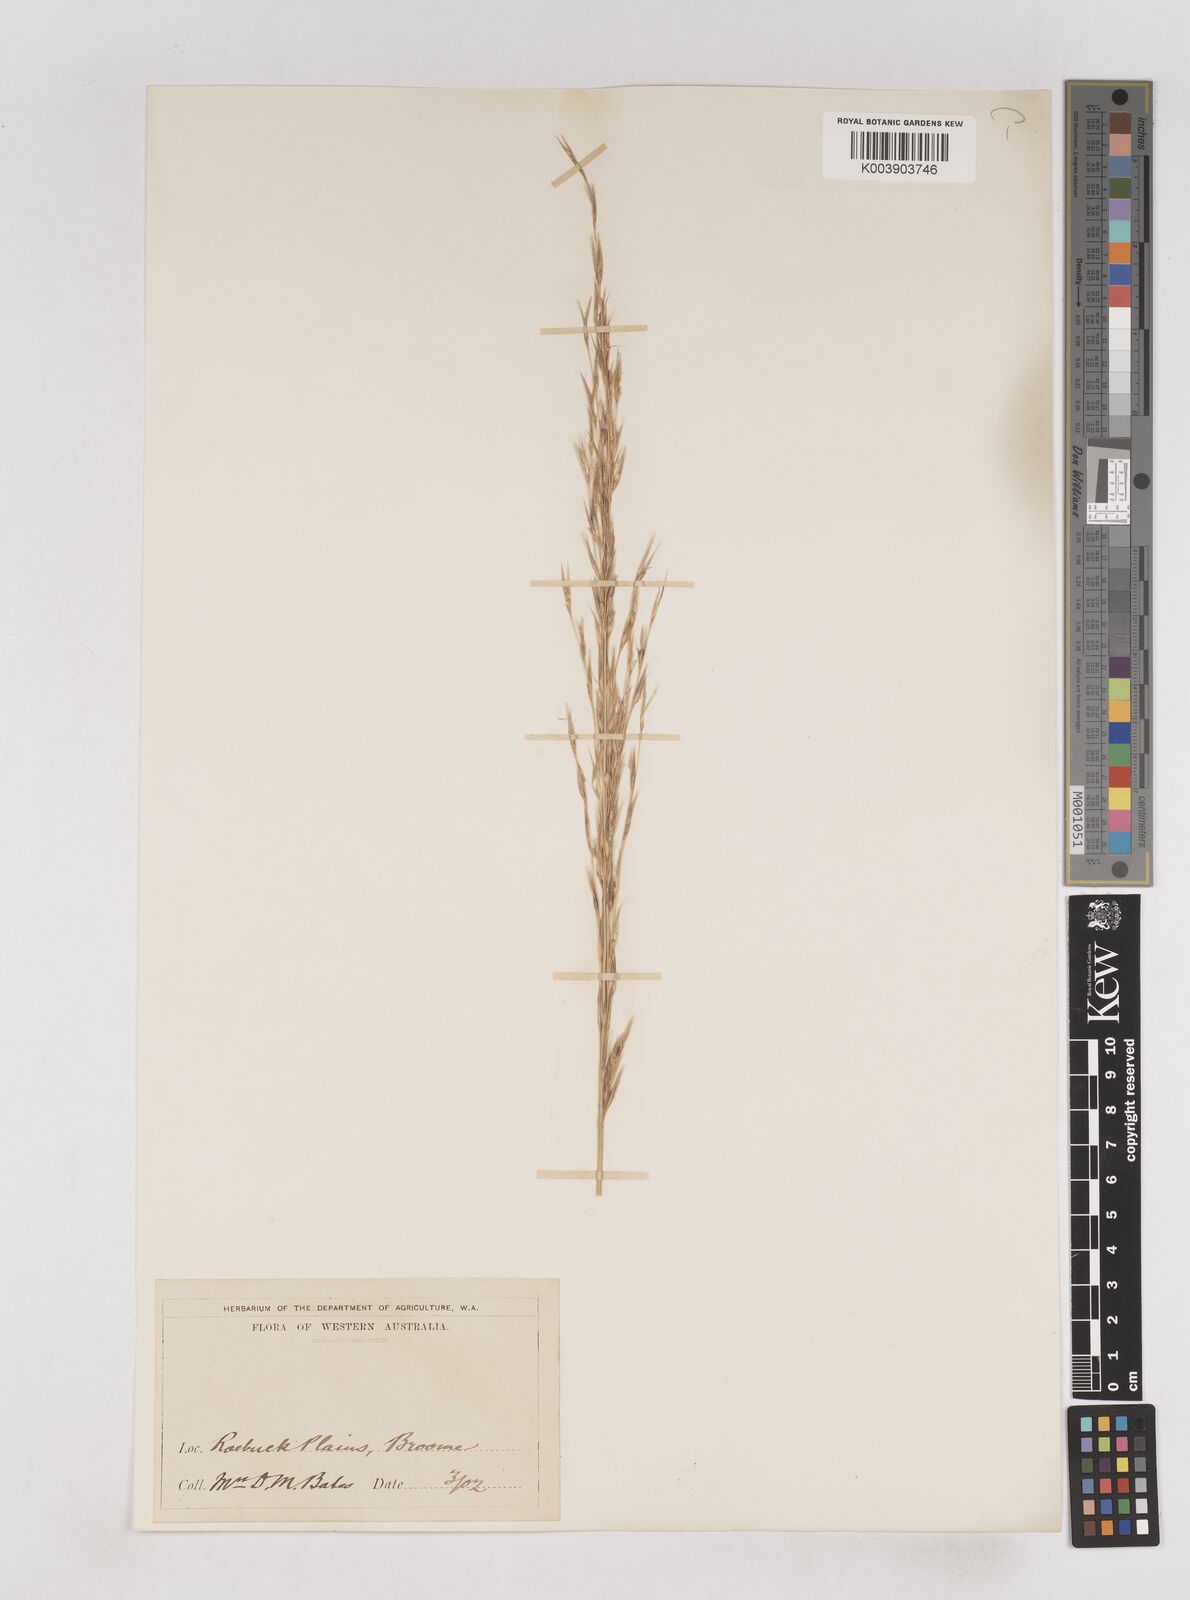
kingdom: Plantae
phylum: Tracheophyta
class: Liliopsida
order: Poales
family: Poaceae
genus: Triodia
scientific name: Triodia danthonioides
